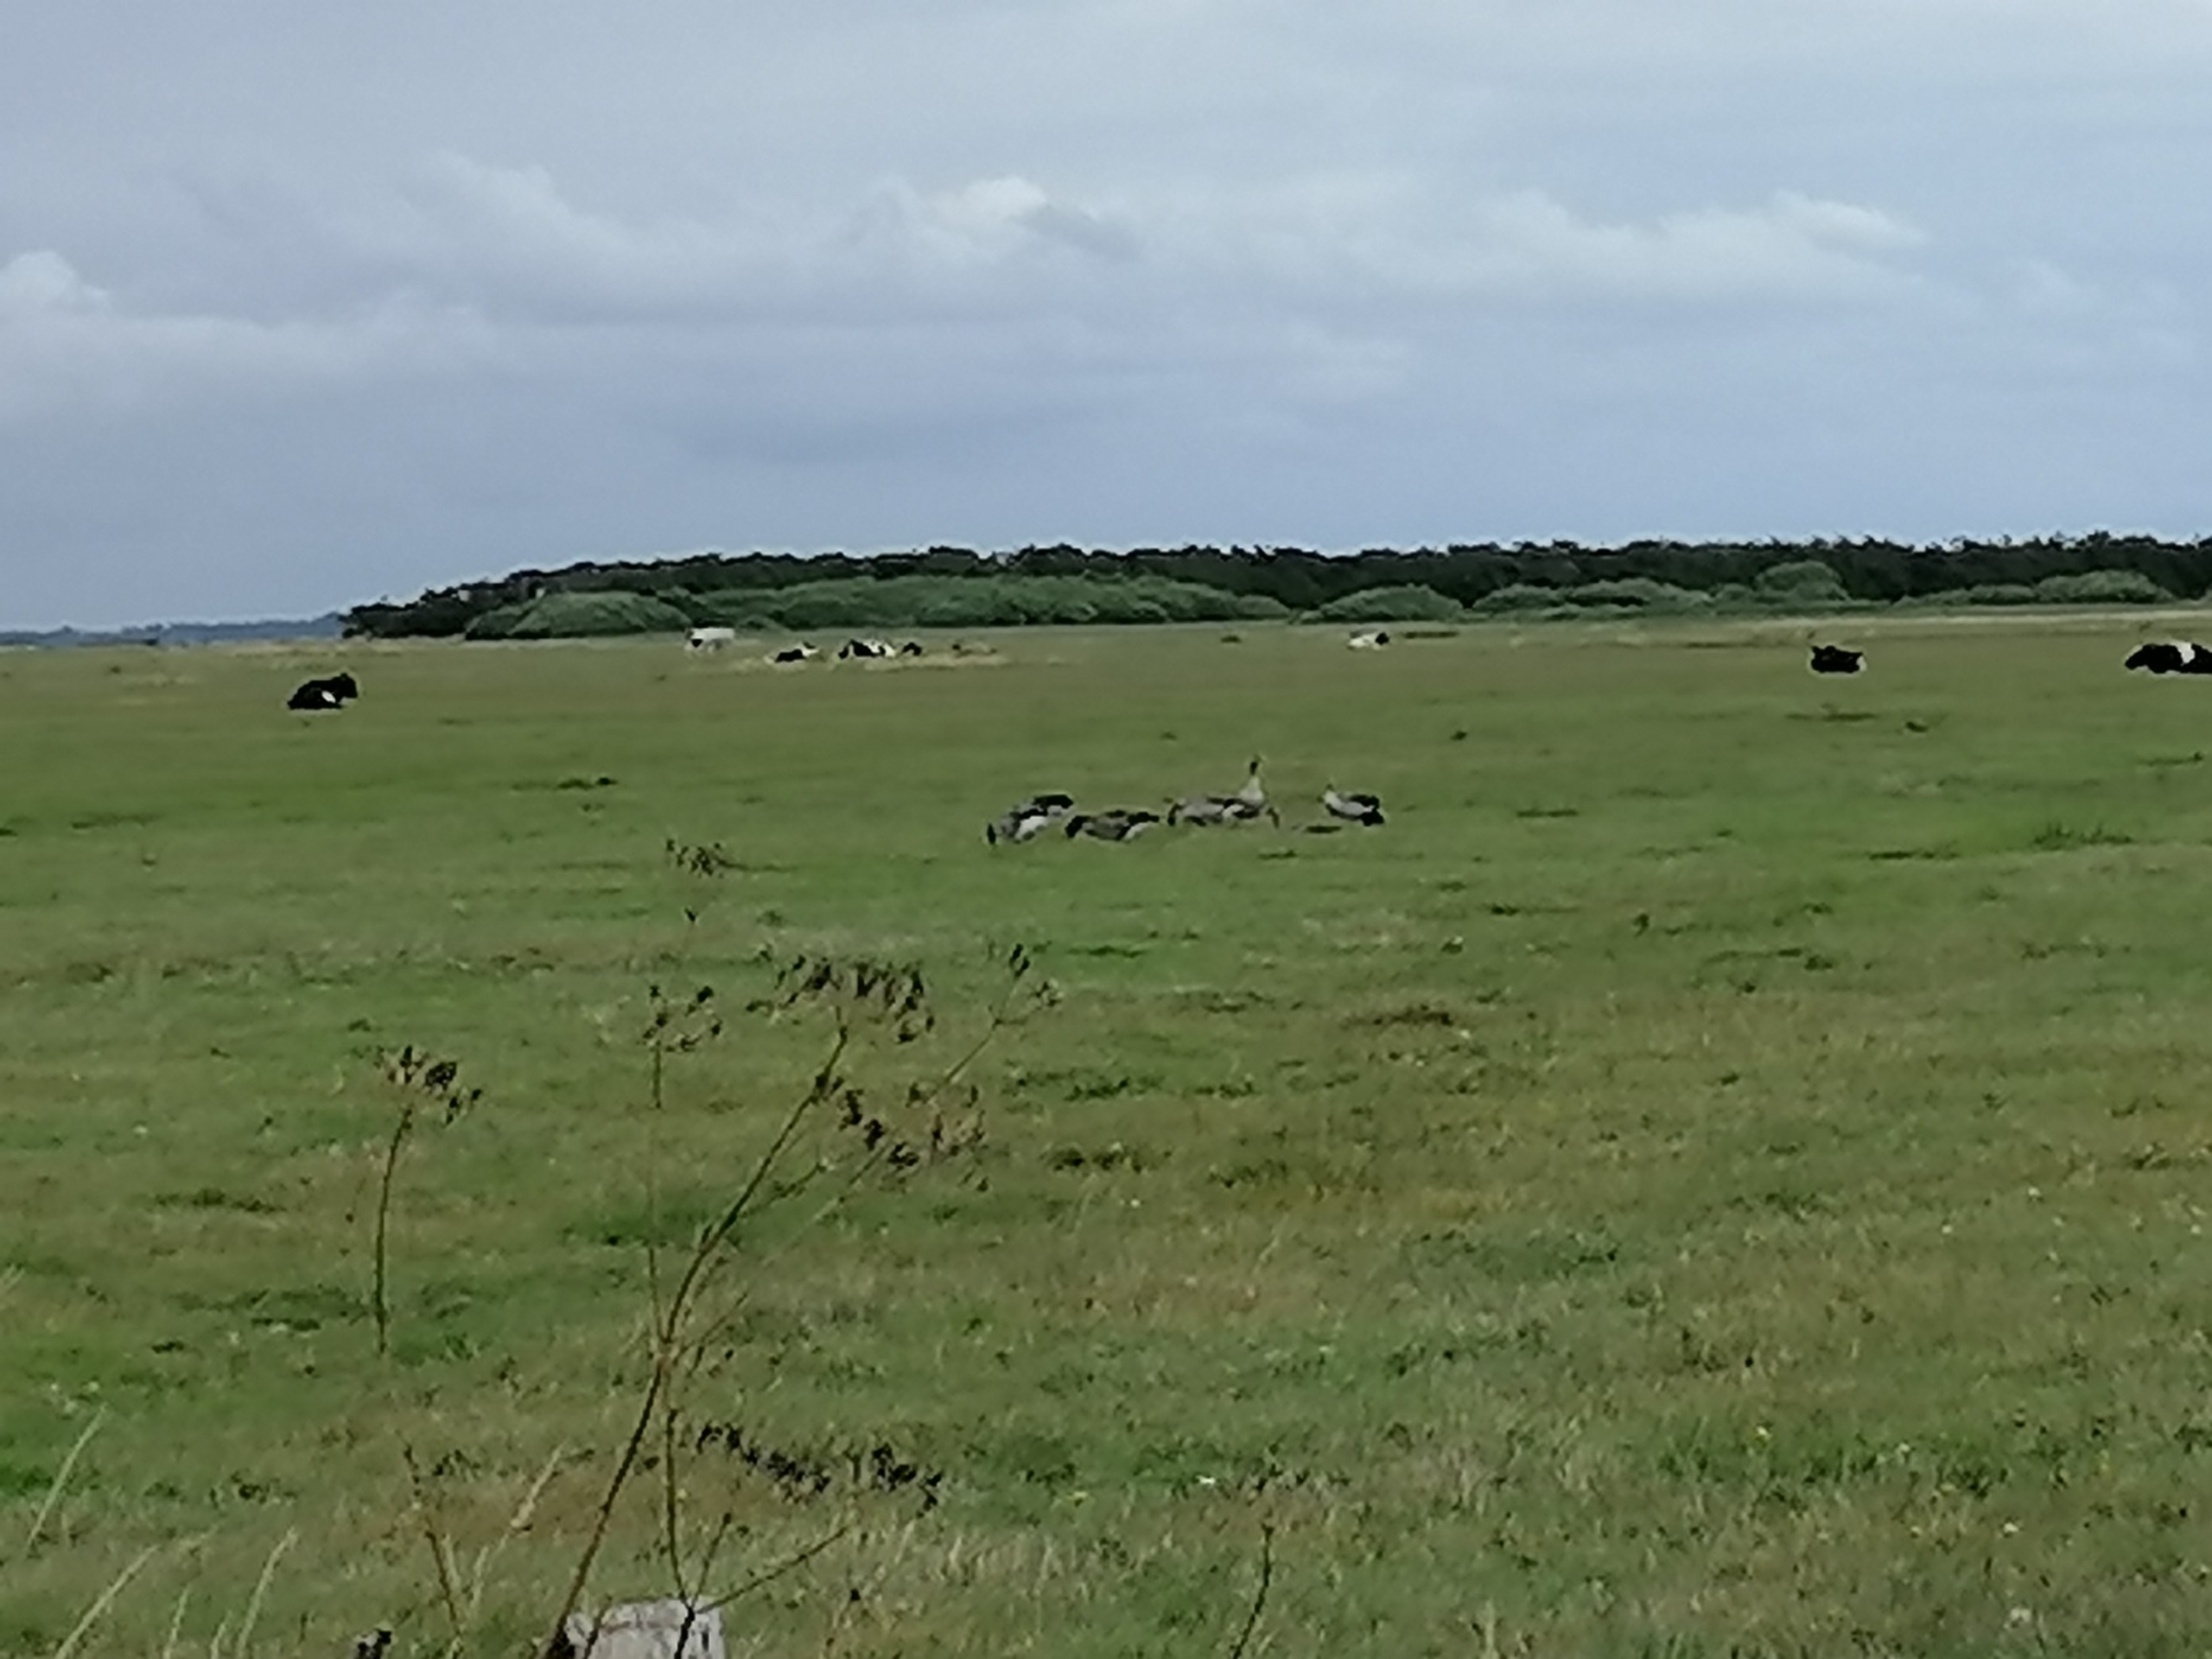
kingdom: Animalia
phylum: Chordata
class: Aves
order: Anseriformes
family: Anatidae
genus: Anser
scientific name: Anser anser
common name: Grågås
